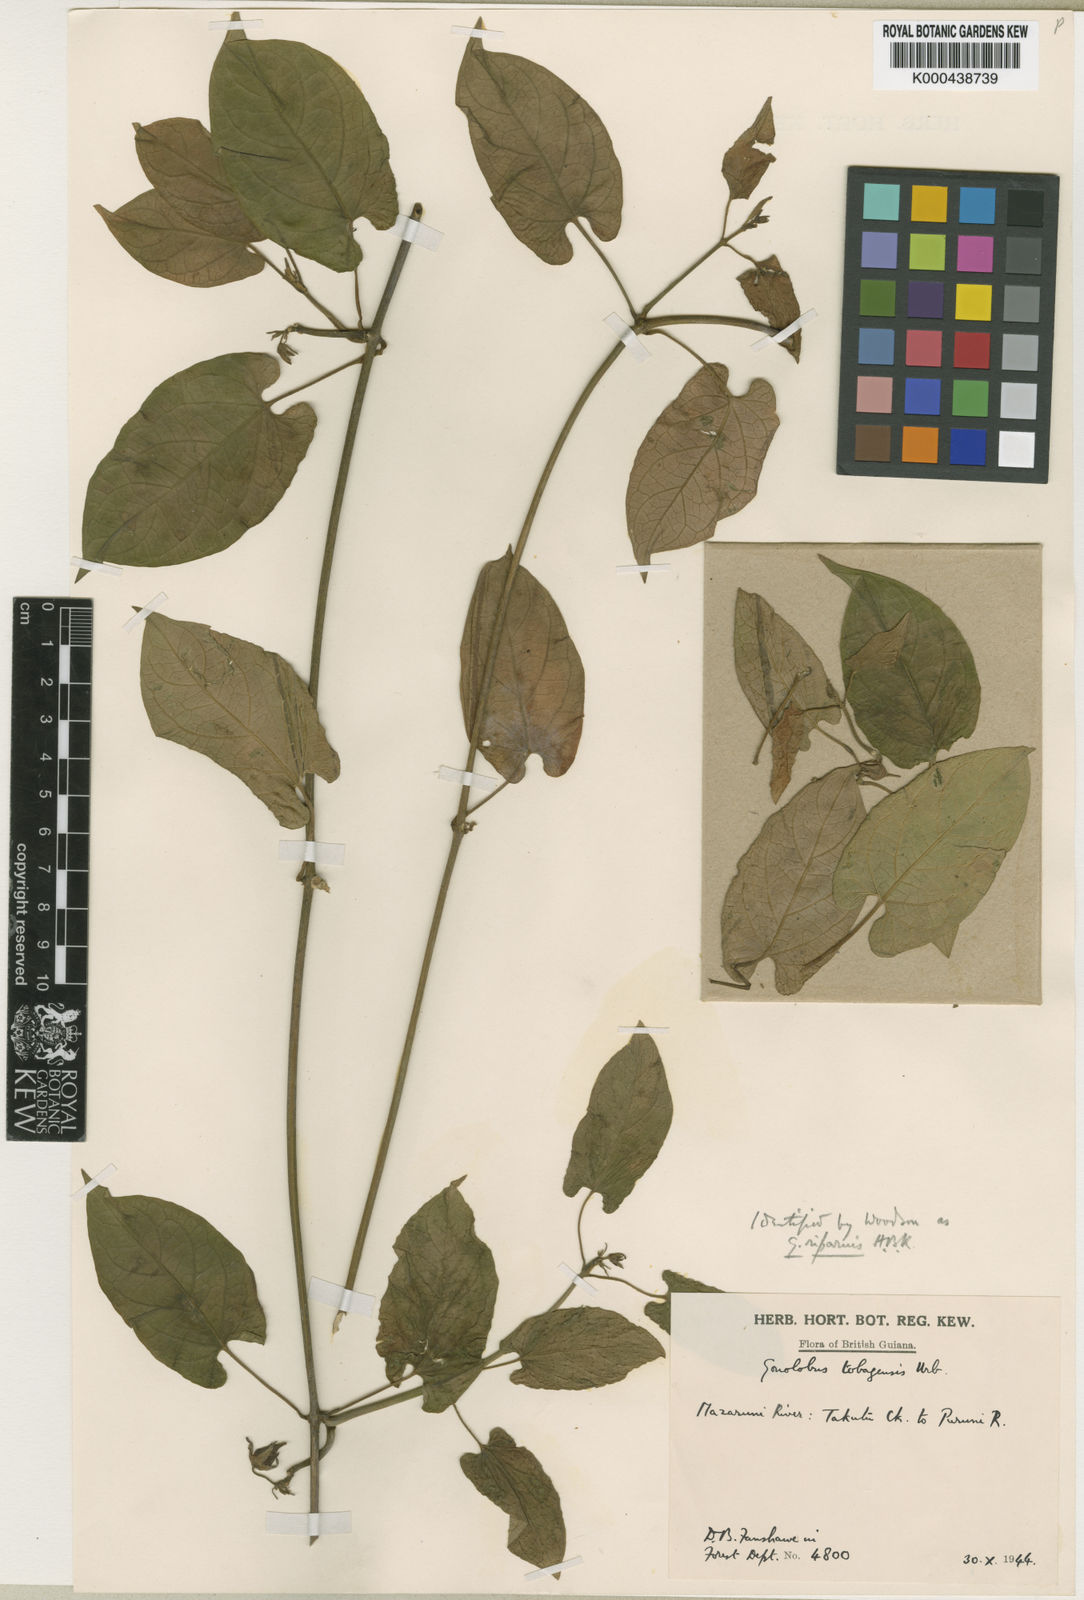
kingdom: Plantae
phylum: Tracheophyta
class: Magnoliopsida
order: Gentianales
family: Apocynaceae
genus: Gonolobus
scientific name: Gonolobus tobagensis
